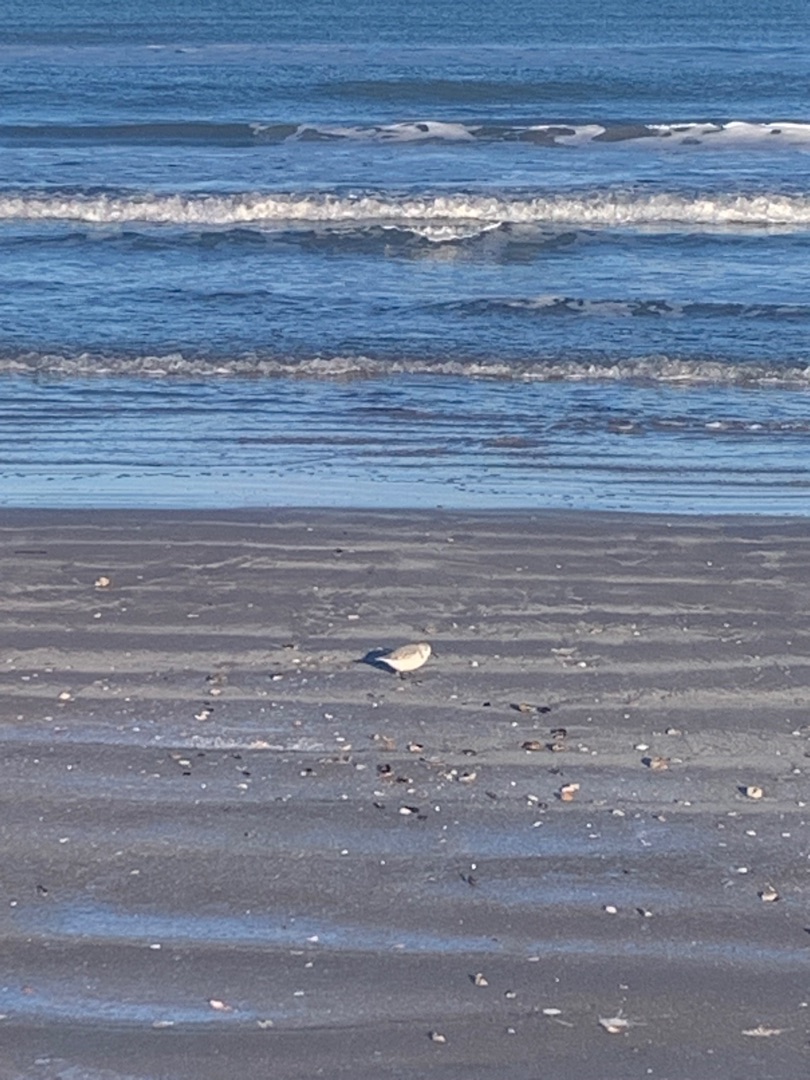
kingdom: Animalia
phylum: Chordata
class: Aves
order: Charadriiformes
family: Scolopacidae
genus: Calidris
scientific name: Calidris alba
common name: Sandløber
